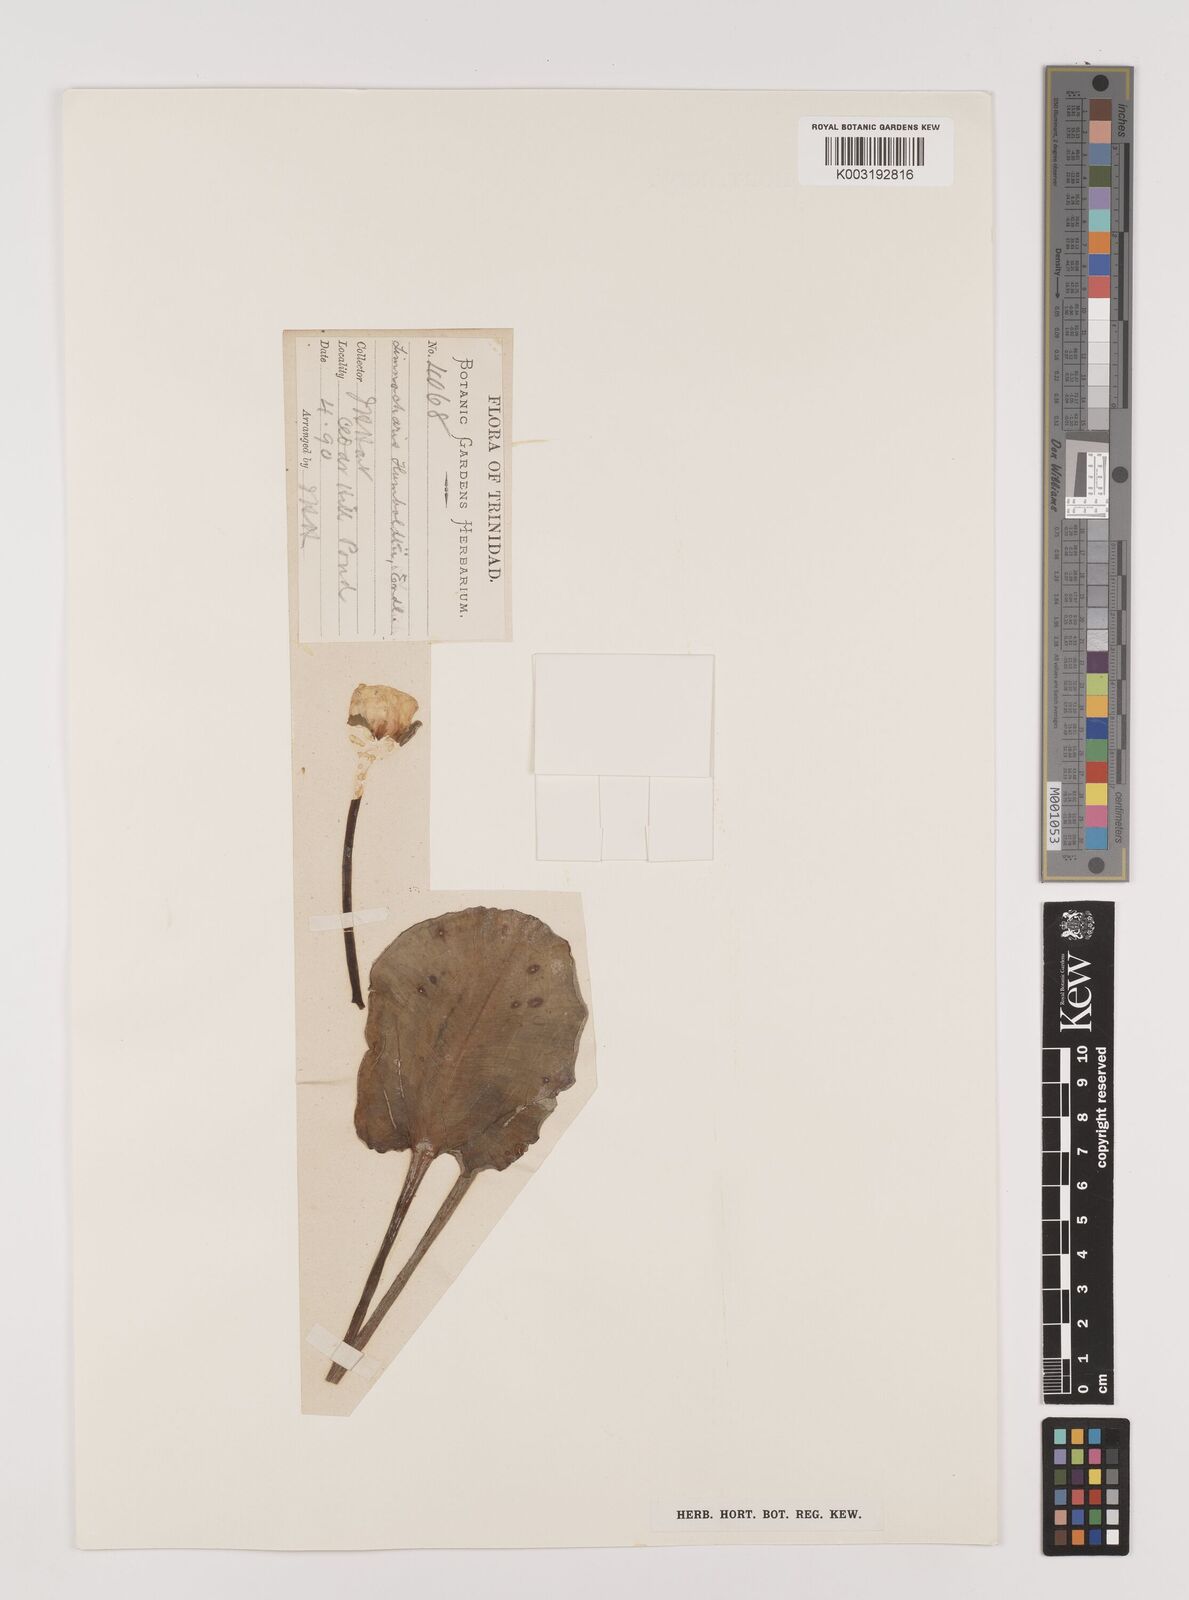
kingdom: Plantae
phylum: Tracheophyta
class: Liliopsida
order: Alismatales
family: Alismataceae
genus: Hydrocleys
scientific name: Hydrocleys nymphoides
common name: Water-poppy
